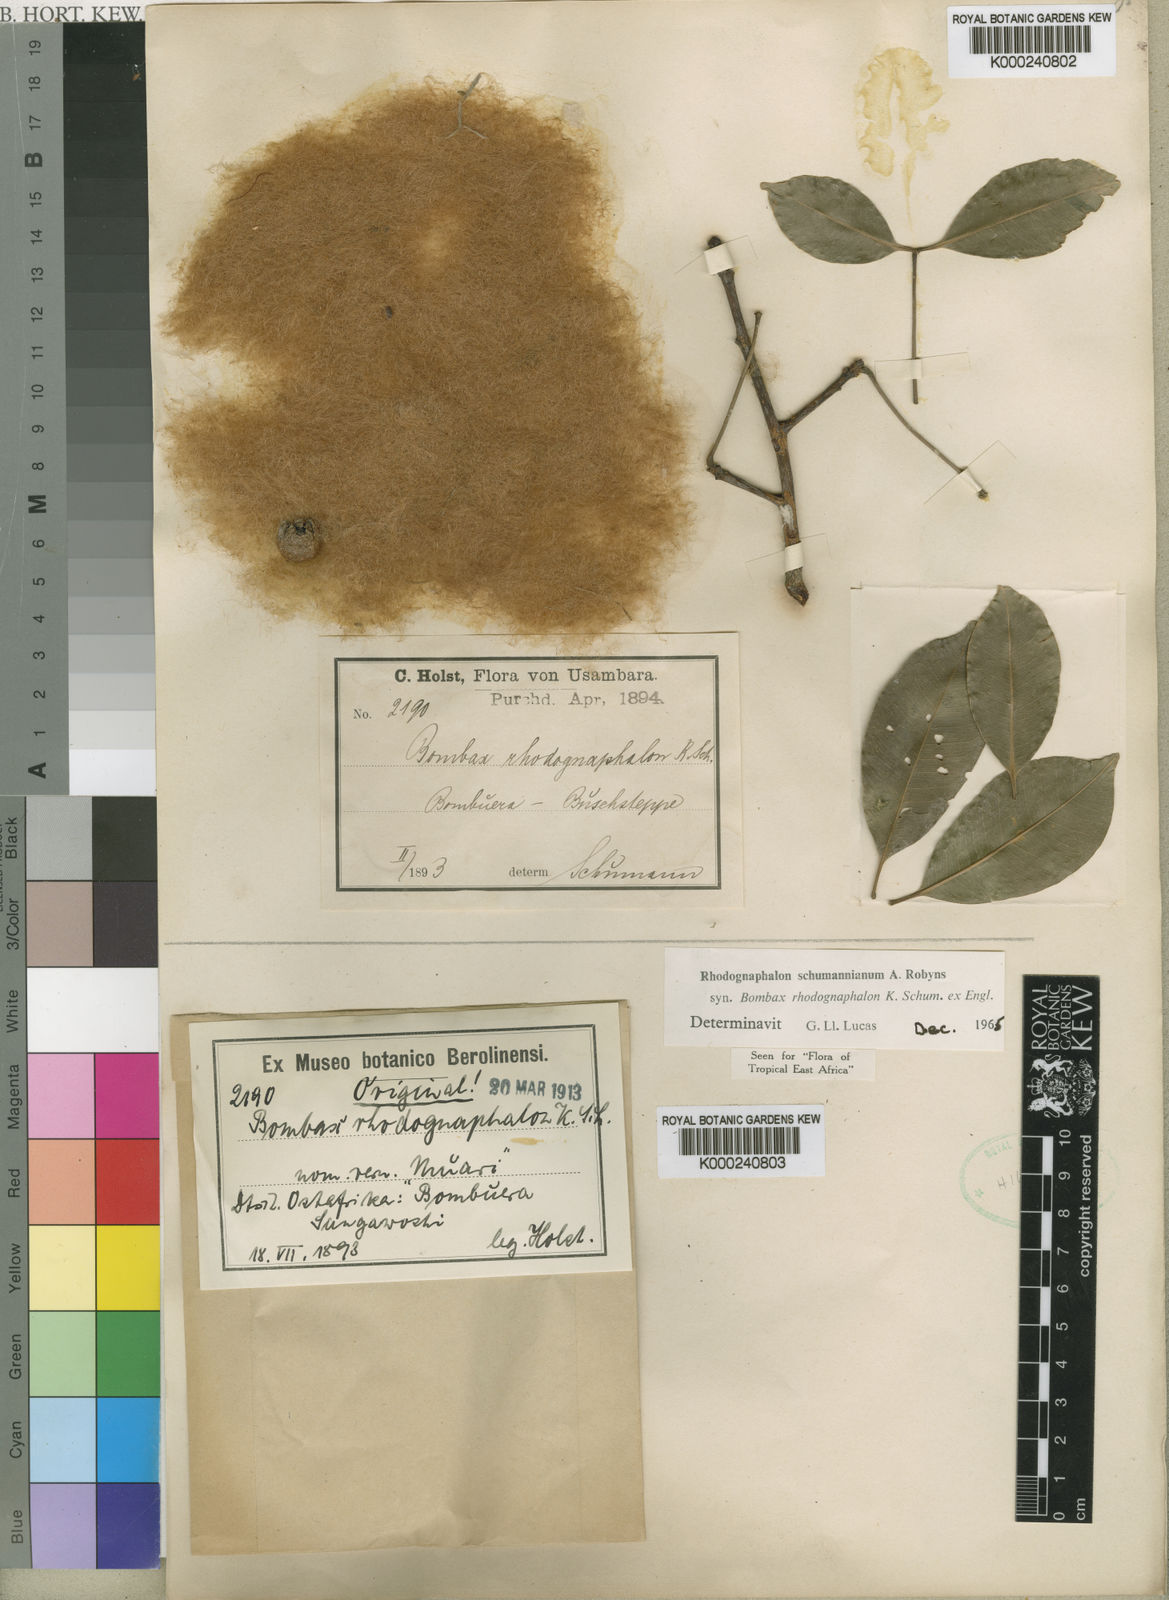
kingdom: Plantae
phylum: Tracheophyta
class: Magnoliopsida
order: Malvales
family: Malvaceae
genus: Rhodognaphalon
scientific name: Rhodognaphalon stolzii
